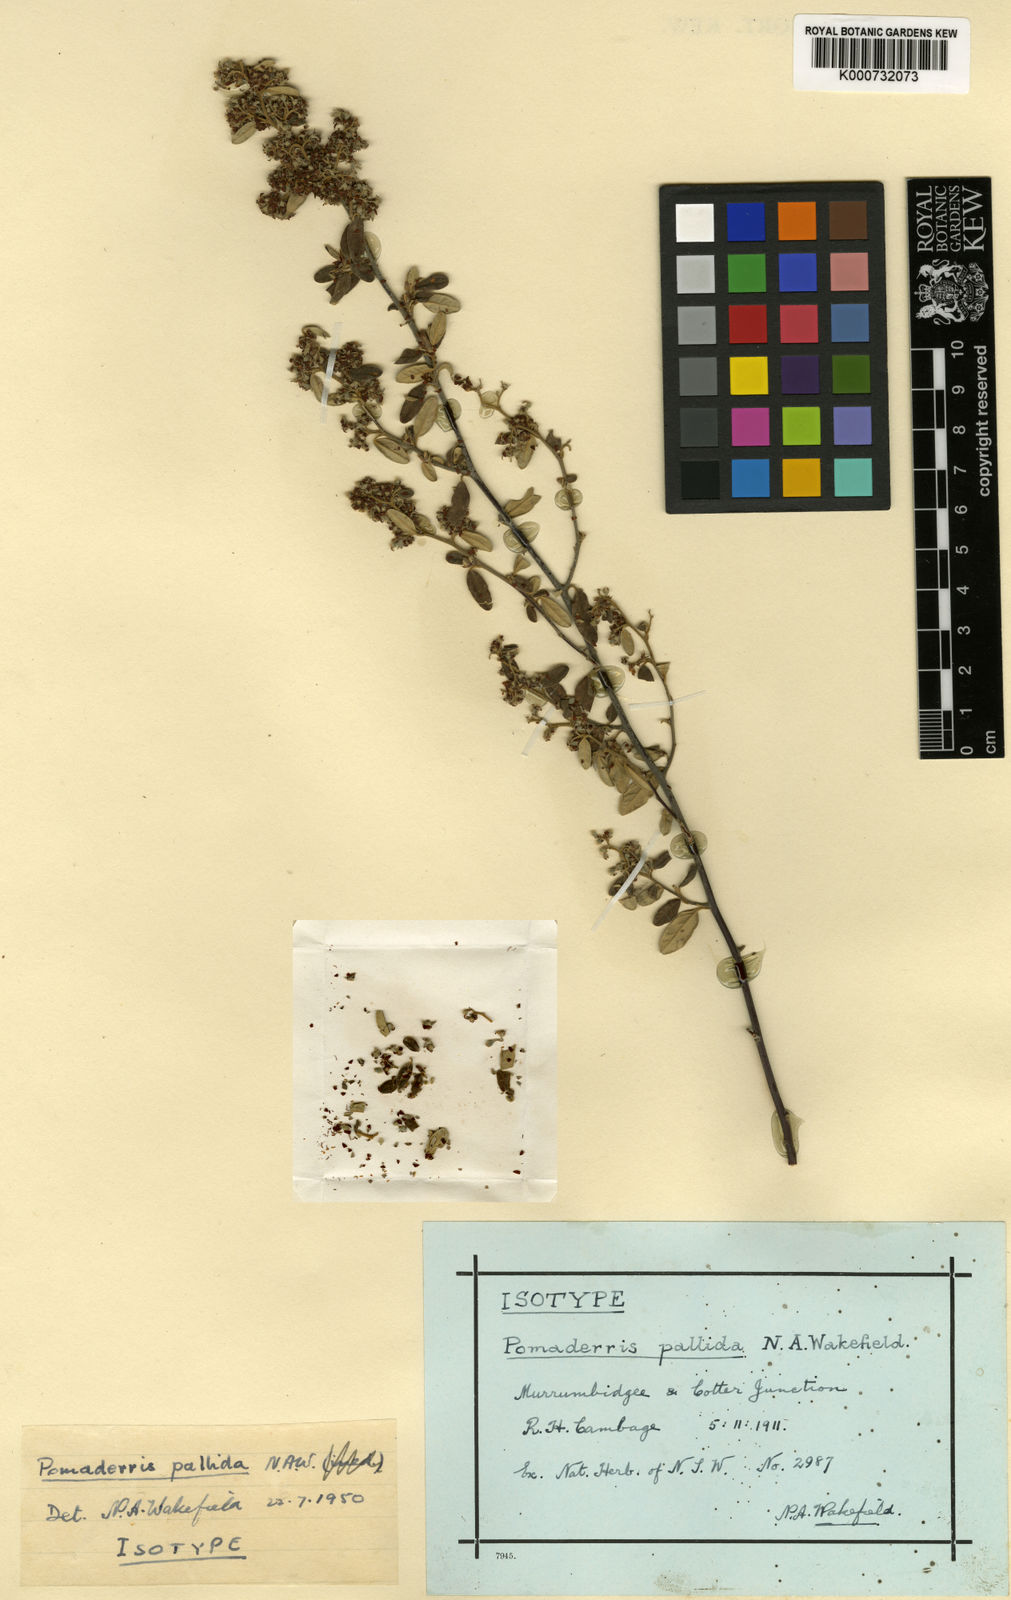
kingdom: Plantae
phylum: Tracheophyta
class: Magnoliopsida
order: Rosales
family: Rhamnaceae
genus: Pomaderris
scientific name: Pomaderris pallida
